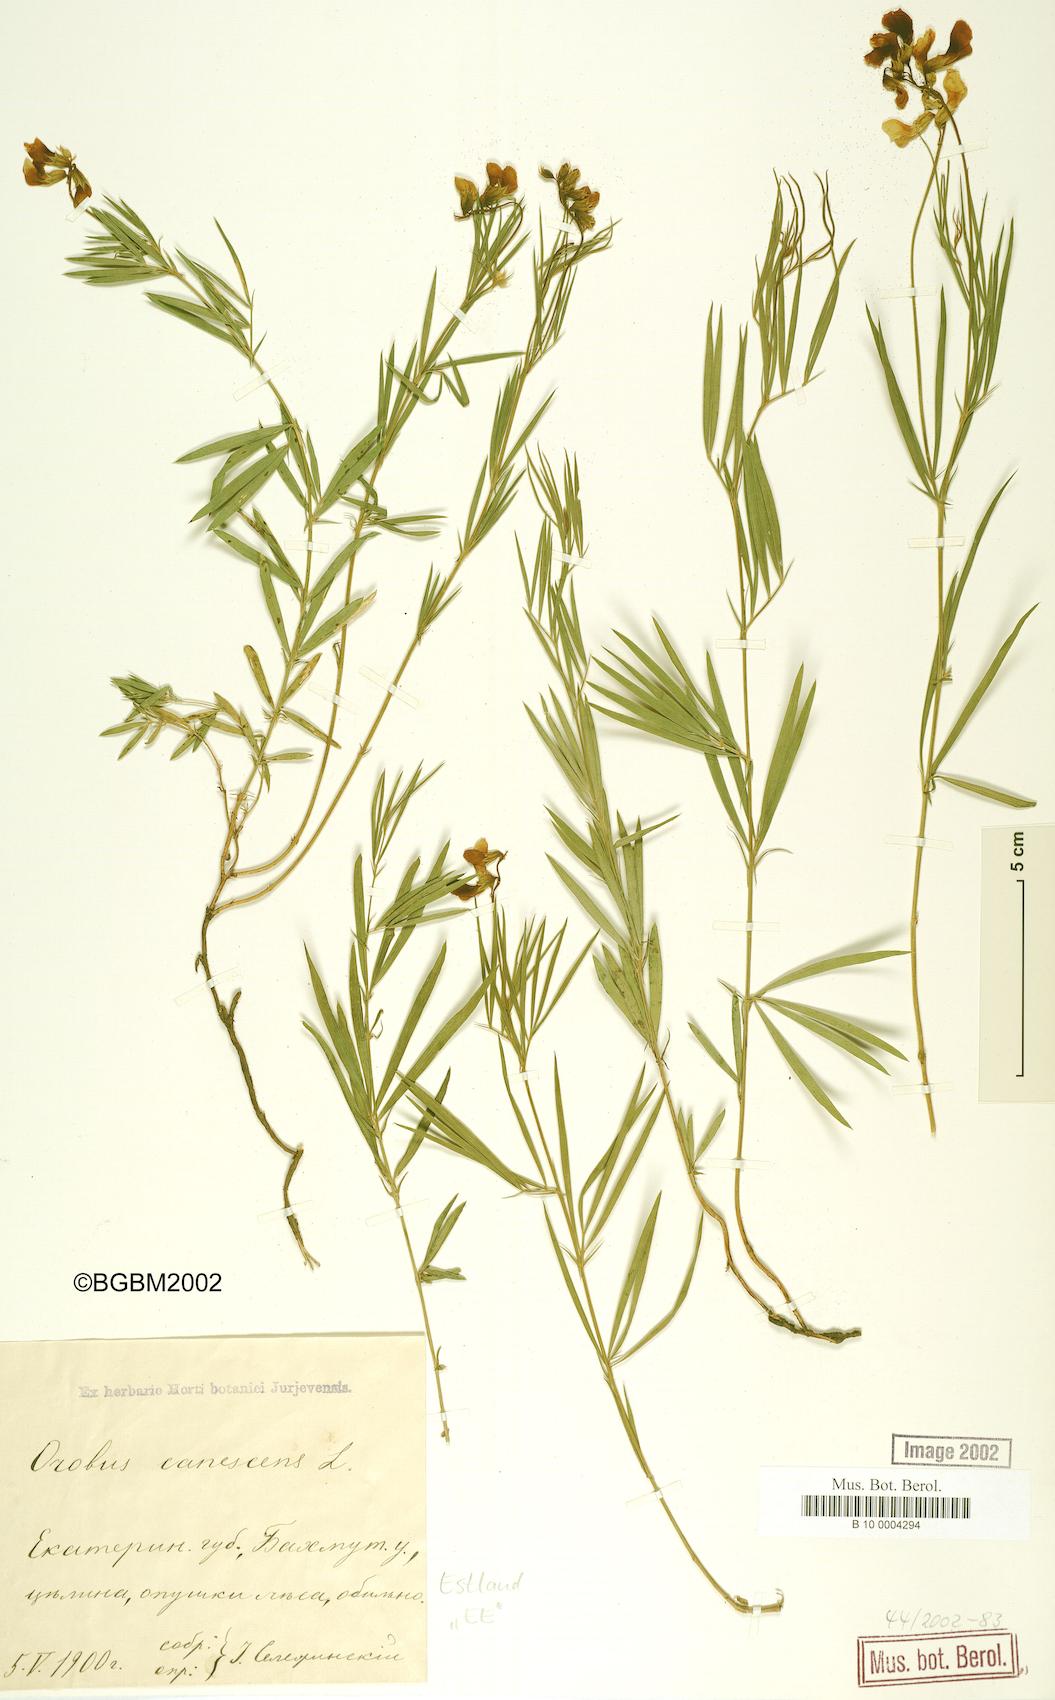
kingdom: Plantae
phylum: Tracheophyta
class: Magnoliopsida
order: Fabales
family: Fabaceae
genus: Lathyrus
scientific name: Lathyrus filiformis
